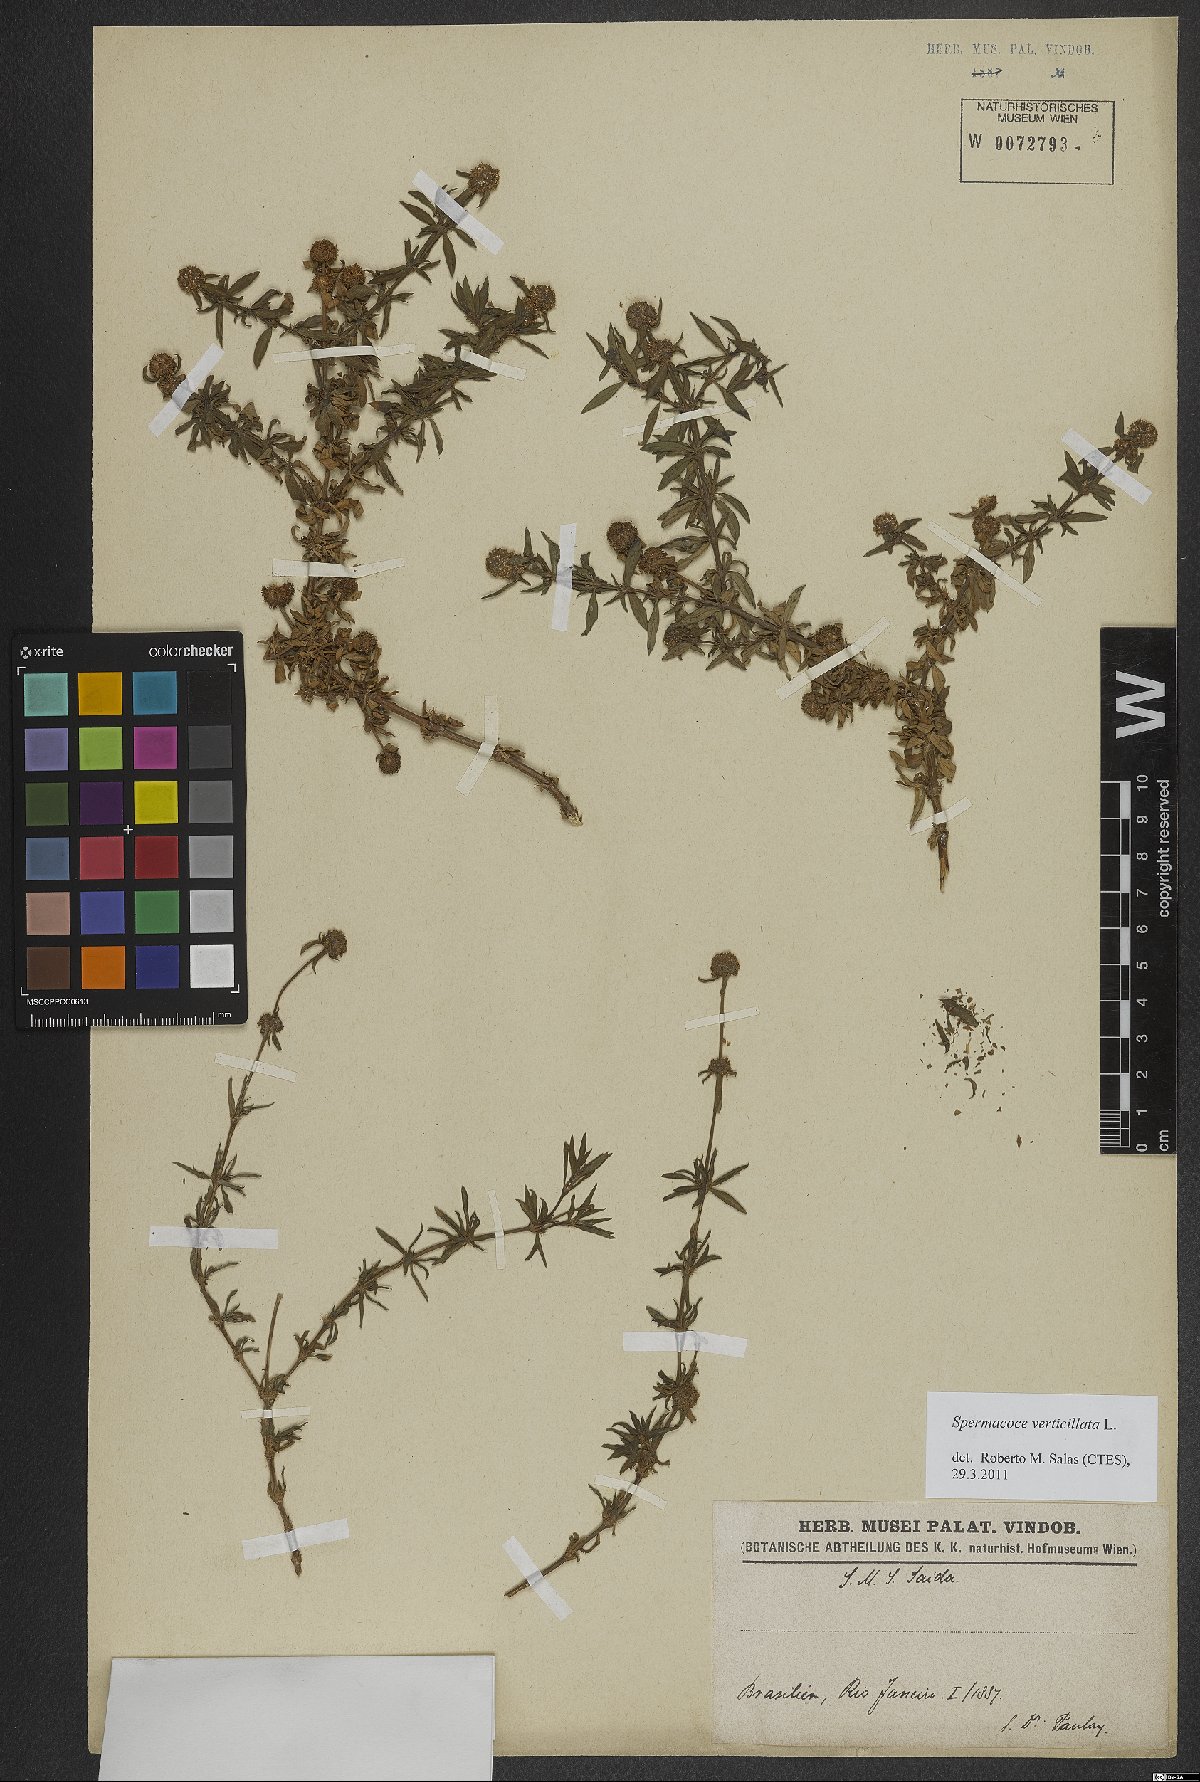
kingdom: Plantae
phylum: Tracheophyta
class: Magnoliopsida
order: Gentianales
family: Rubiaceae
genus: Spermacoce
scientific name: Spermacoce verticillata
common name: Shrubby false buttonweed
